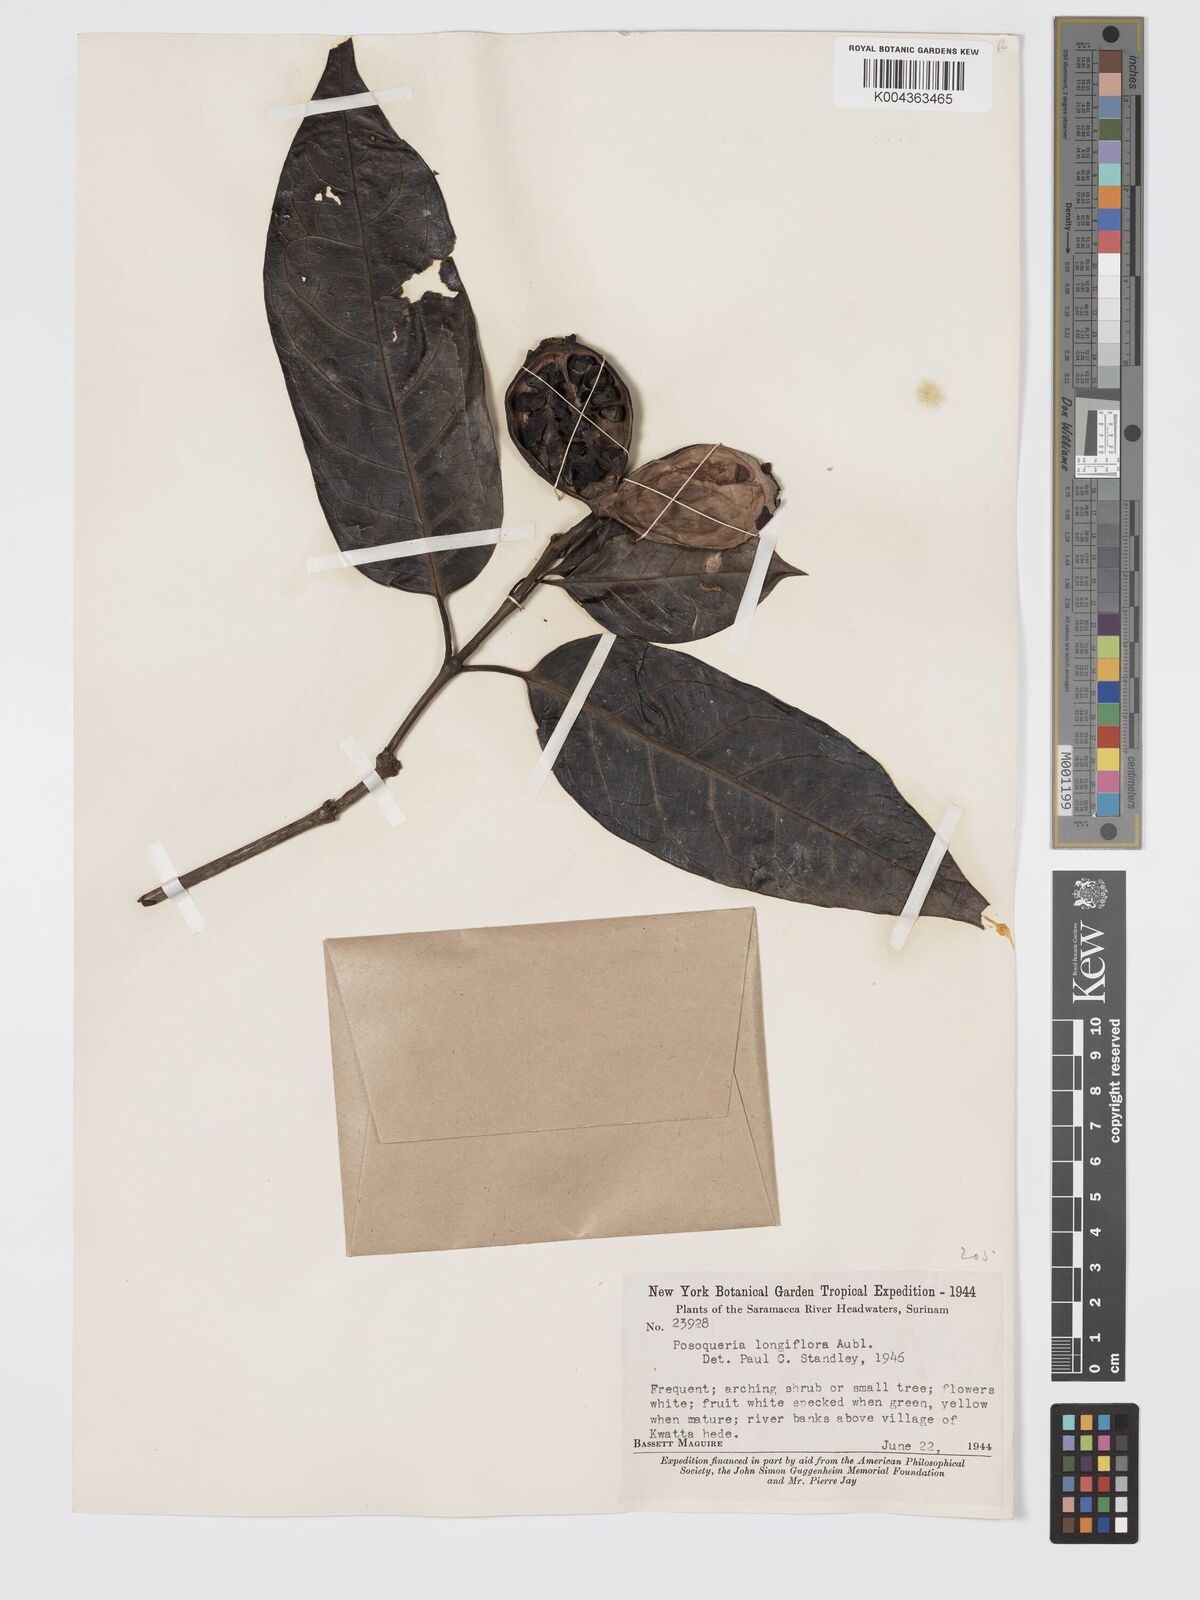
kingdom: Plantae
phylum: Tracheophyta
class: Magnoliopsida
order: Gentianales
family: Rubiaceae
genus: Posoqueria
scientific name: Posoqueria
